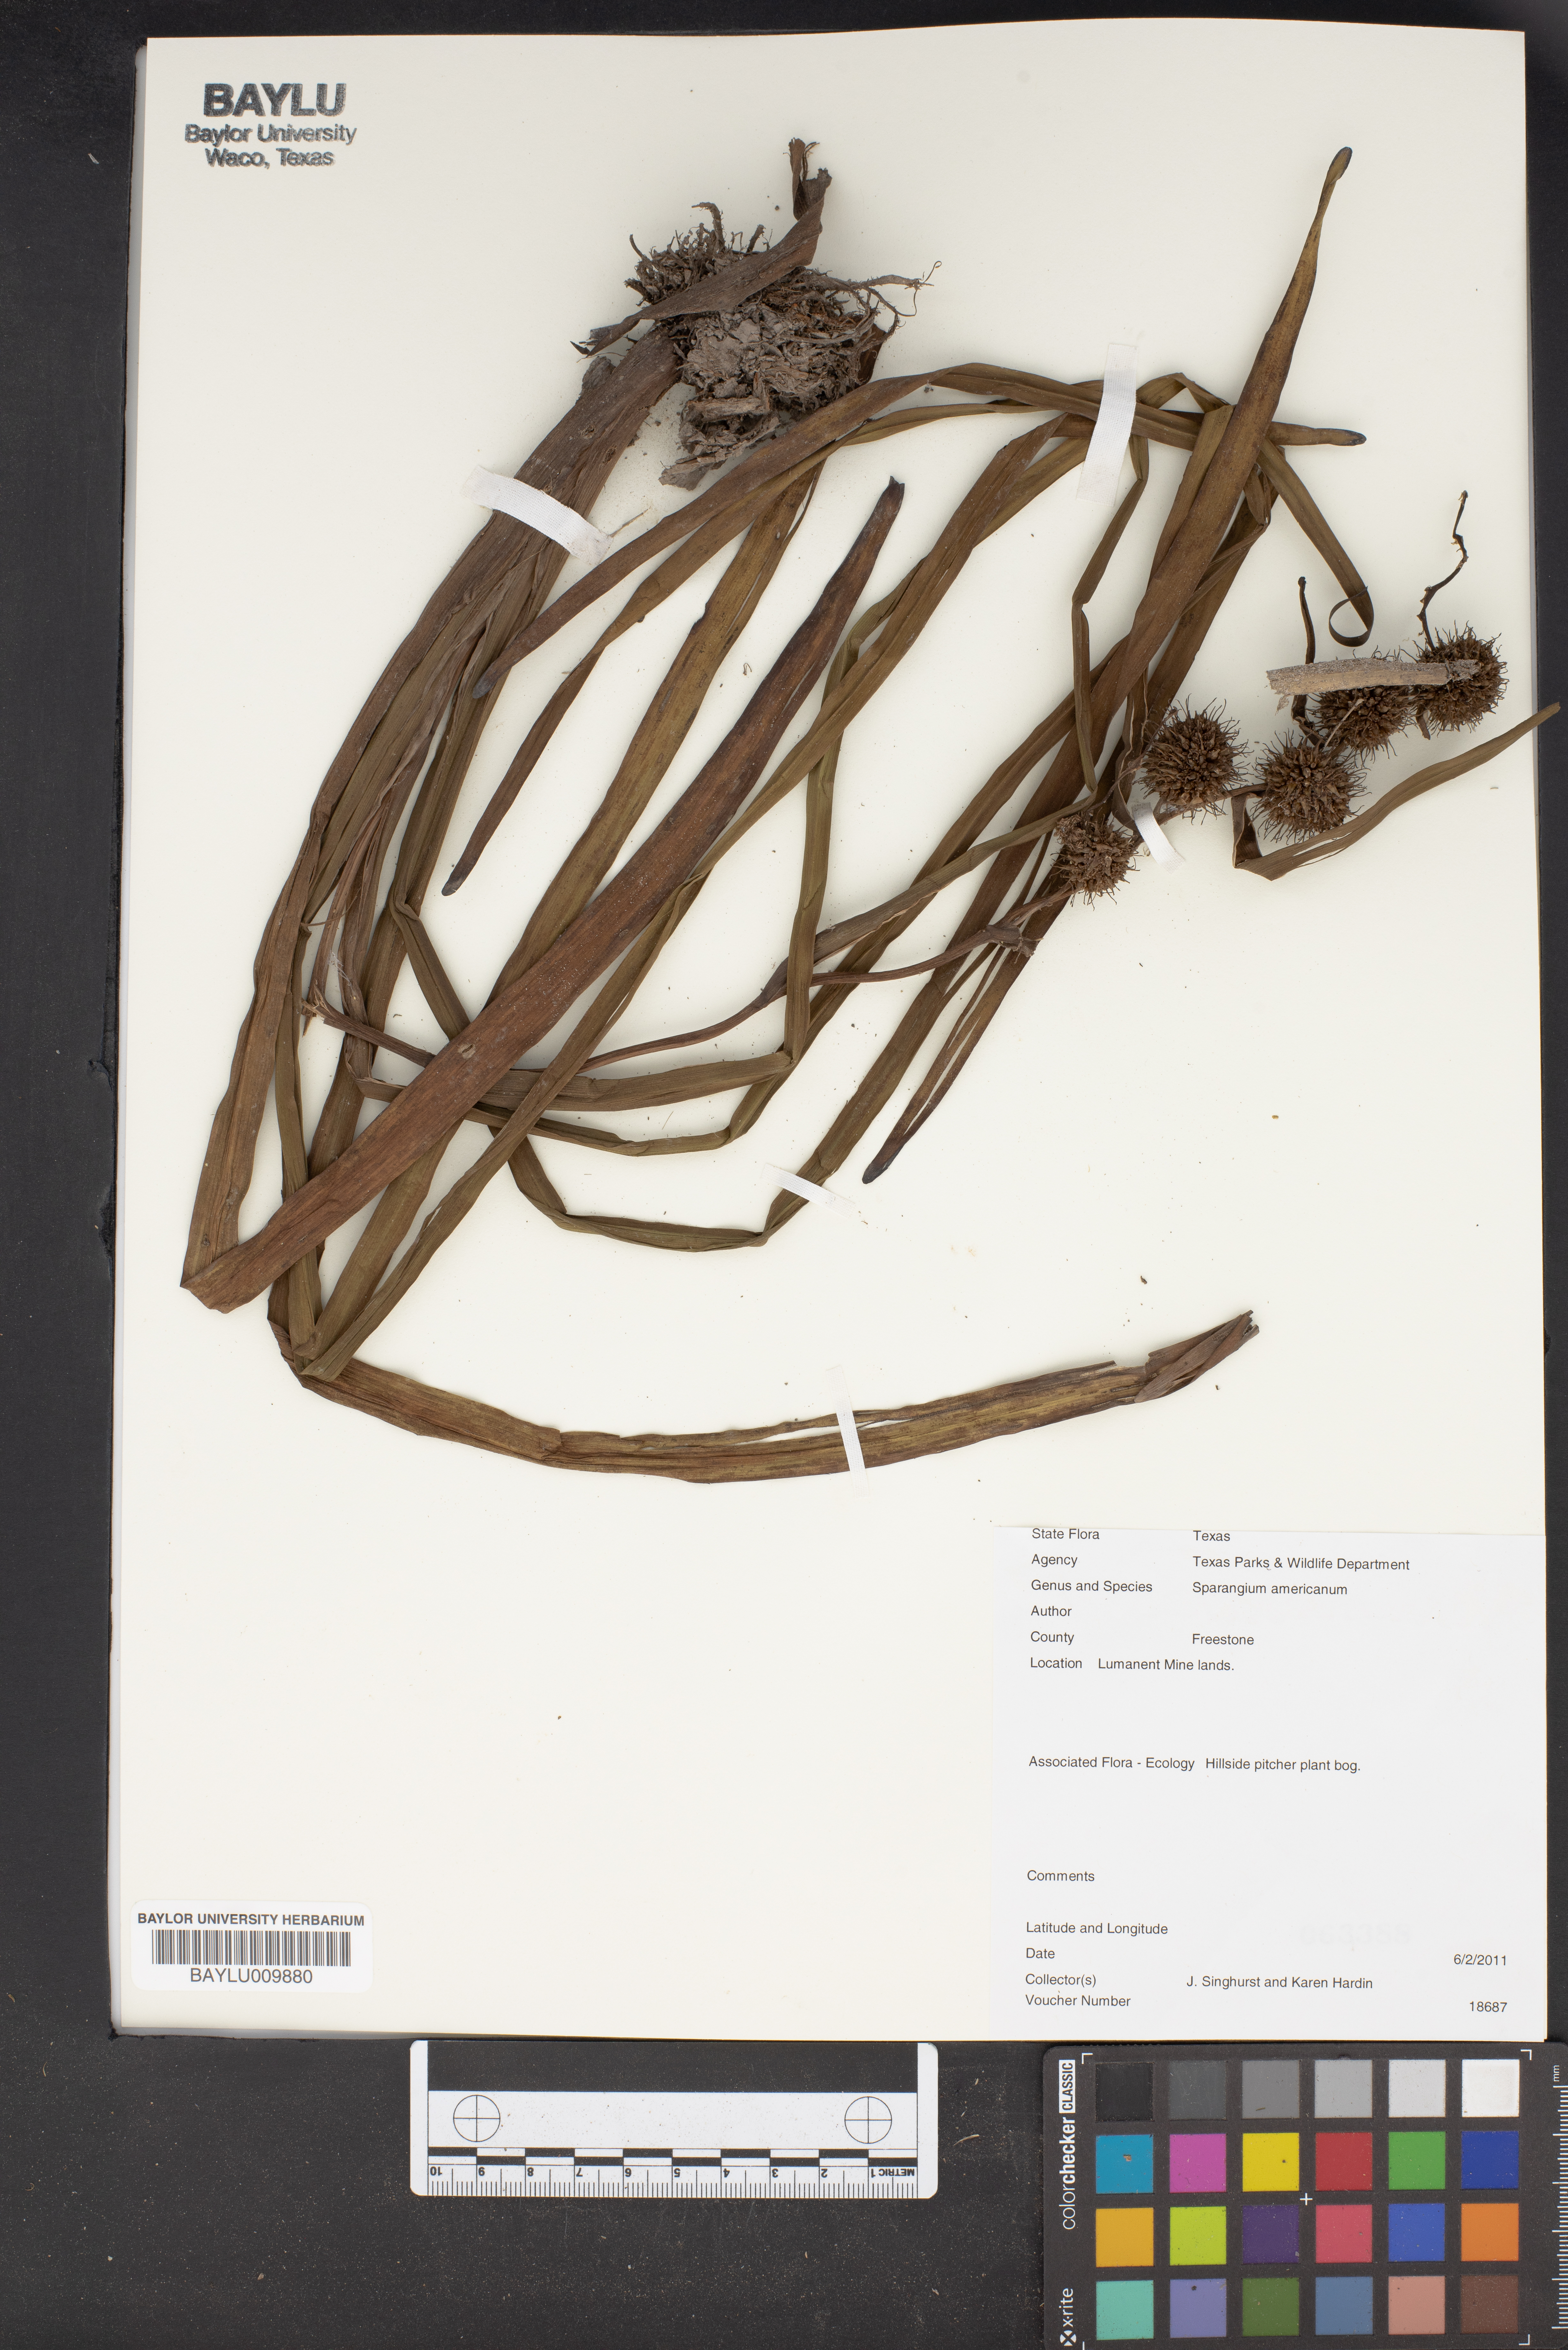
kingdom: Plantae
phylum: Tracheophyta
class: Liliopsida
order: Poales
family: Typhaceae
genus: Sparganium
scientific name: Sparganium americanum
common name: American burreed
